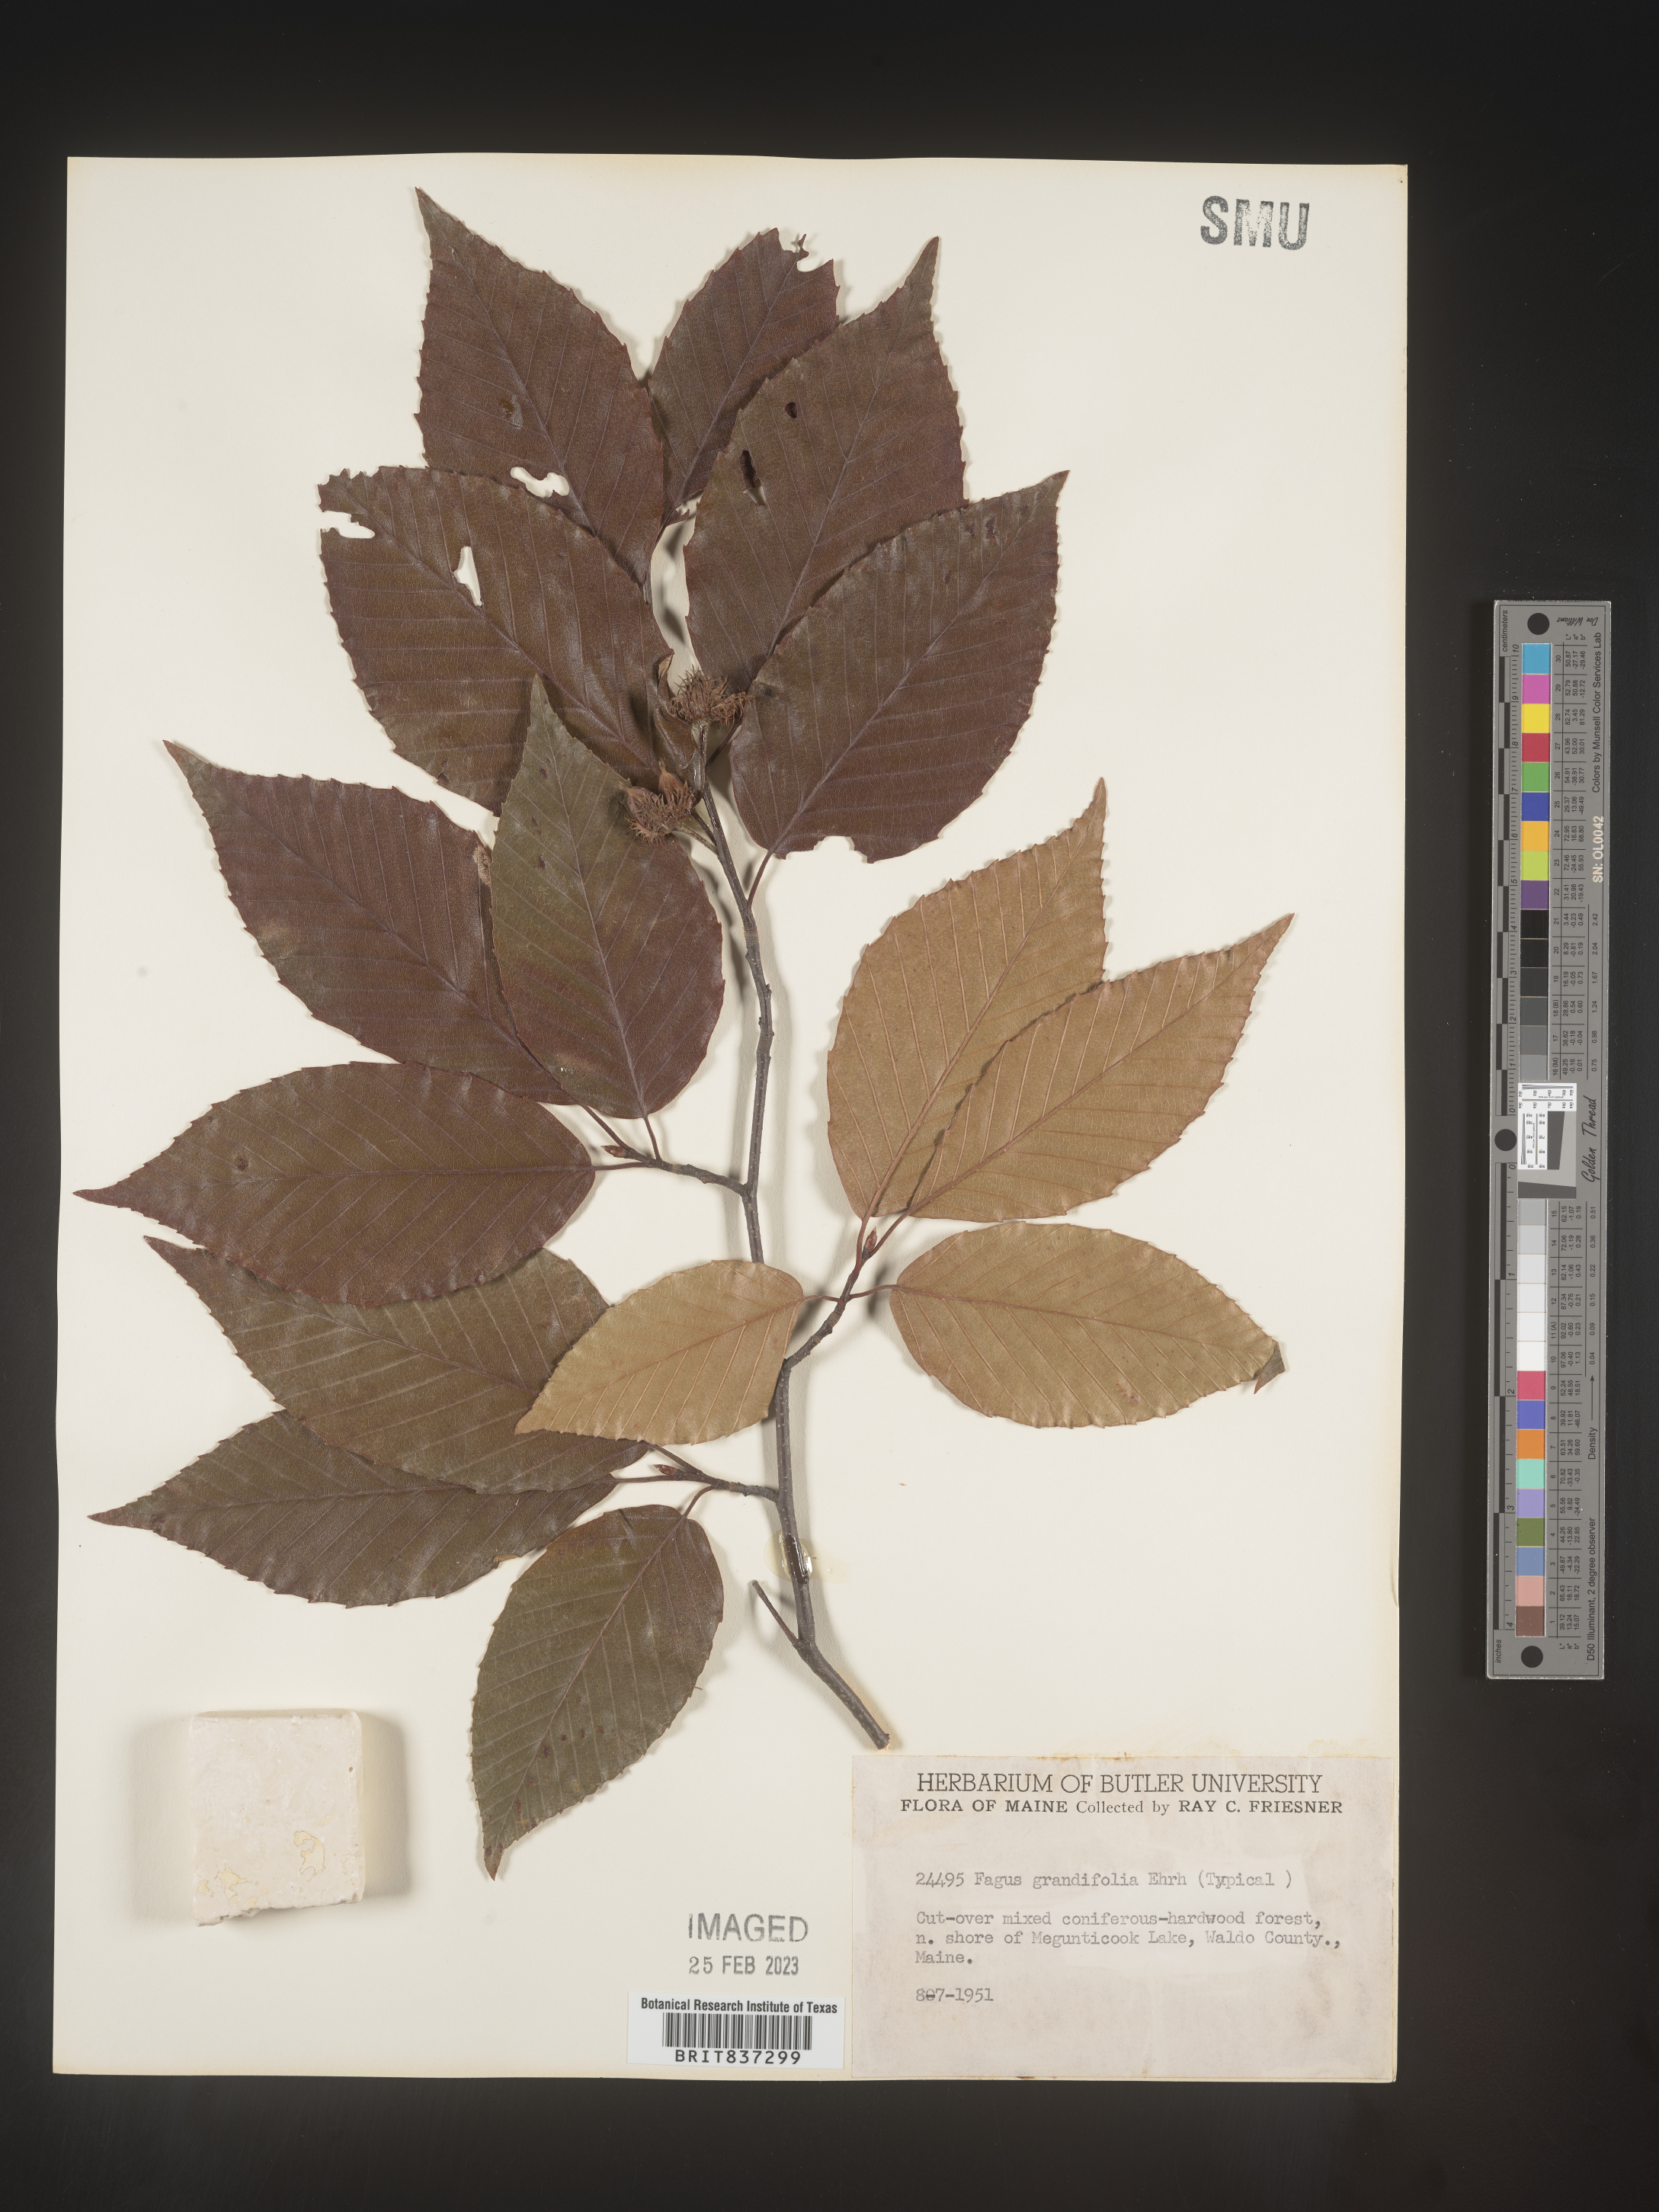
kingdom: Plantae
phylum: Tracheophyta
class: Magnoliopsida
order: Fagales
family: Fagaceae
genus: Fagus
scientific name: Fagus grandifolia
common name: American beech
